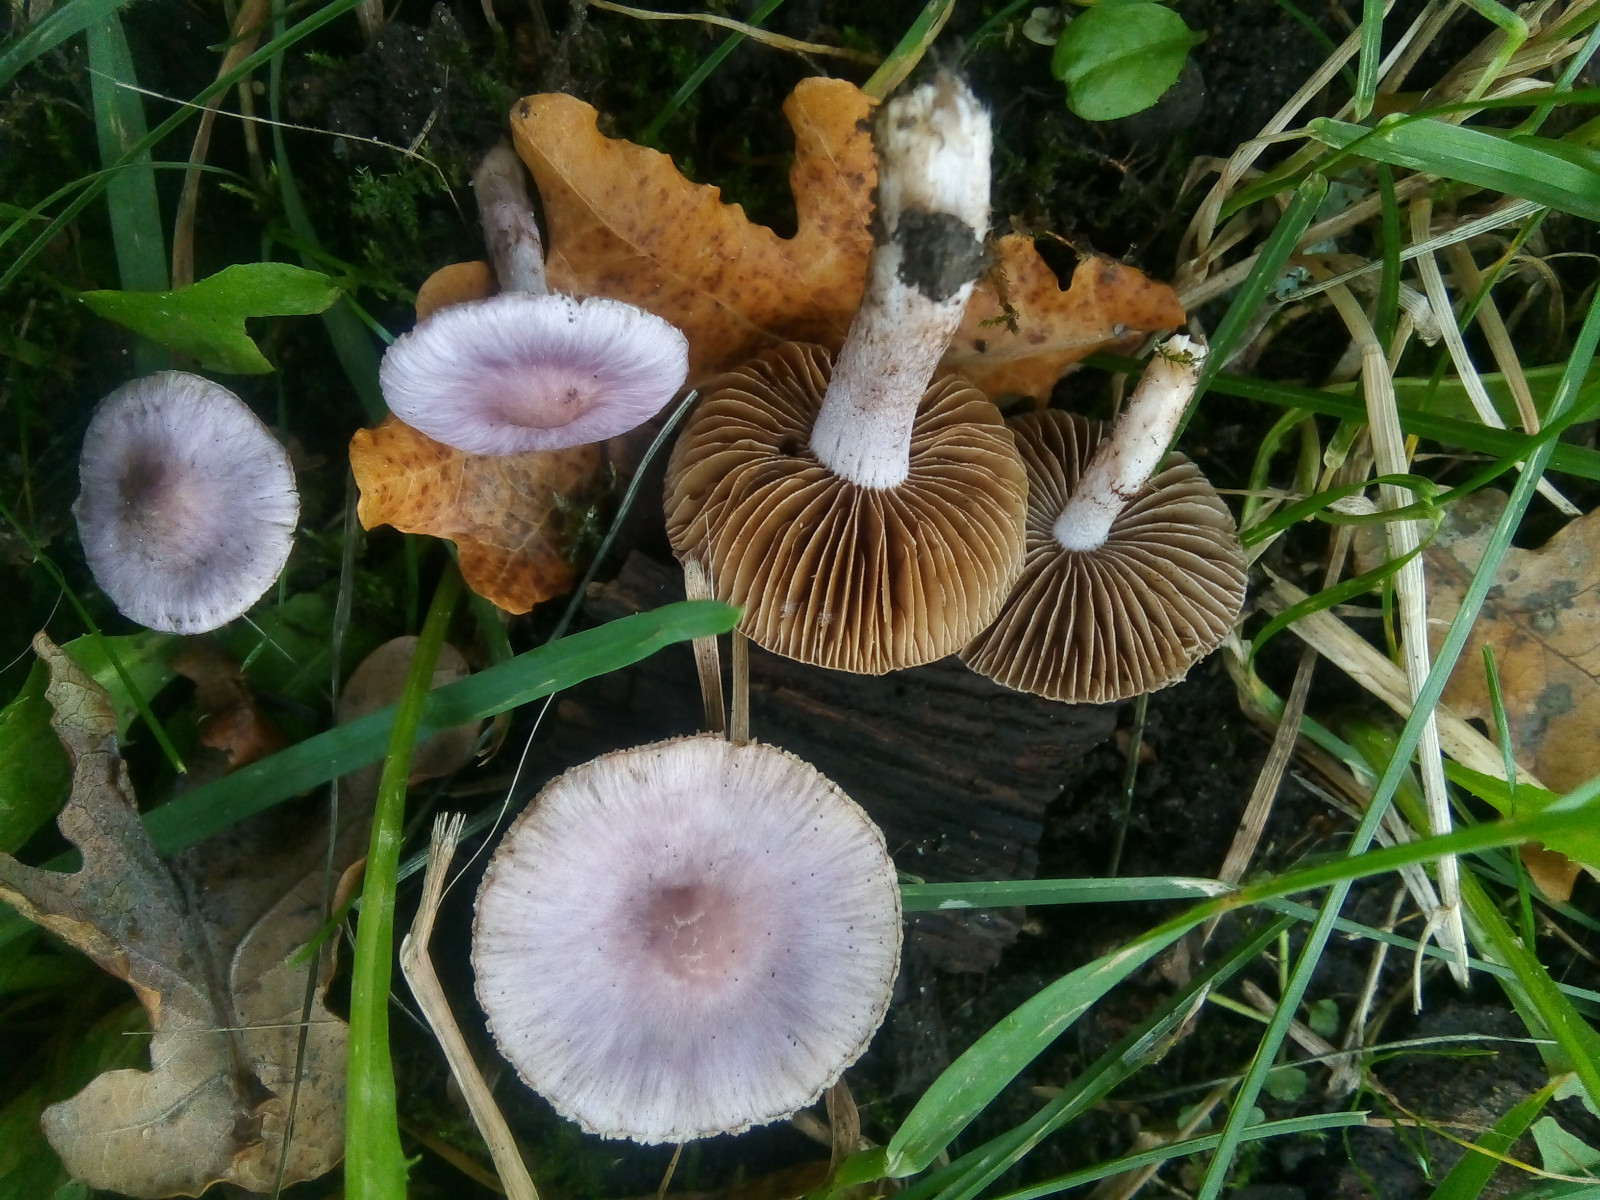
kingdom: Fungi
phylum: Basidiomycota
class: Agaricomycetes
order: Agaricales
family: Inocybaceae
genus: Inocybe
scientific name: Inocybe geophylla
